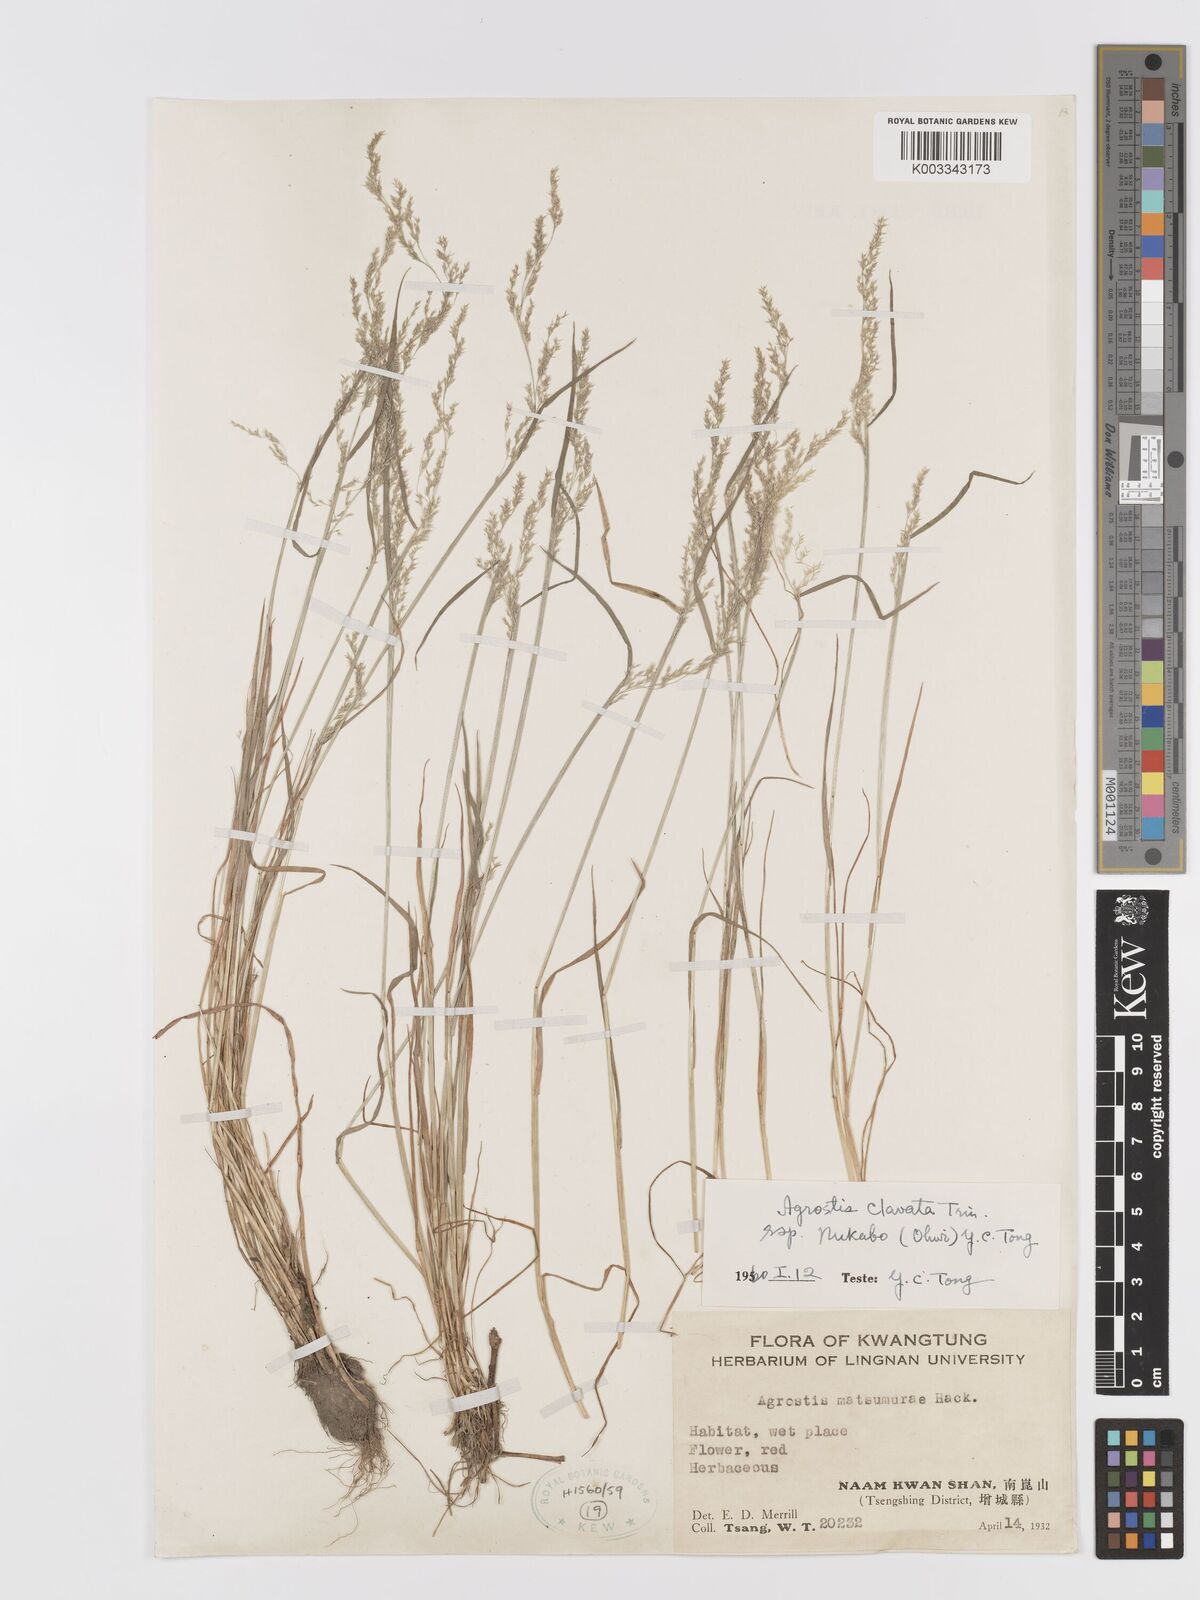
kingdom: Plantae
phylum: Tracheophyta
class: Liliopsida
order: Poales
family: Poaceae
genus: Agrostis
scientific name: Agrostis clavata
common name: Clavate bent
